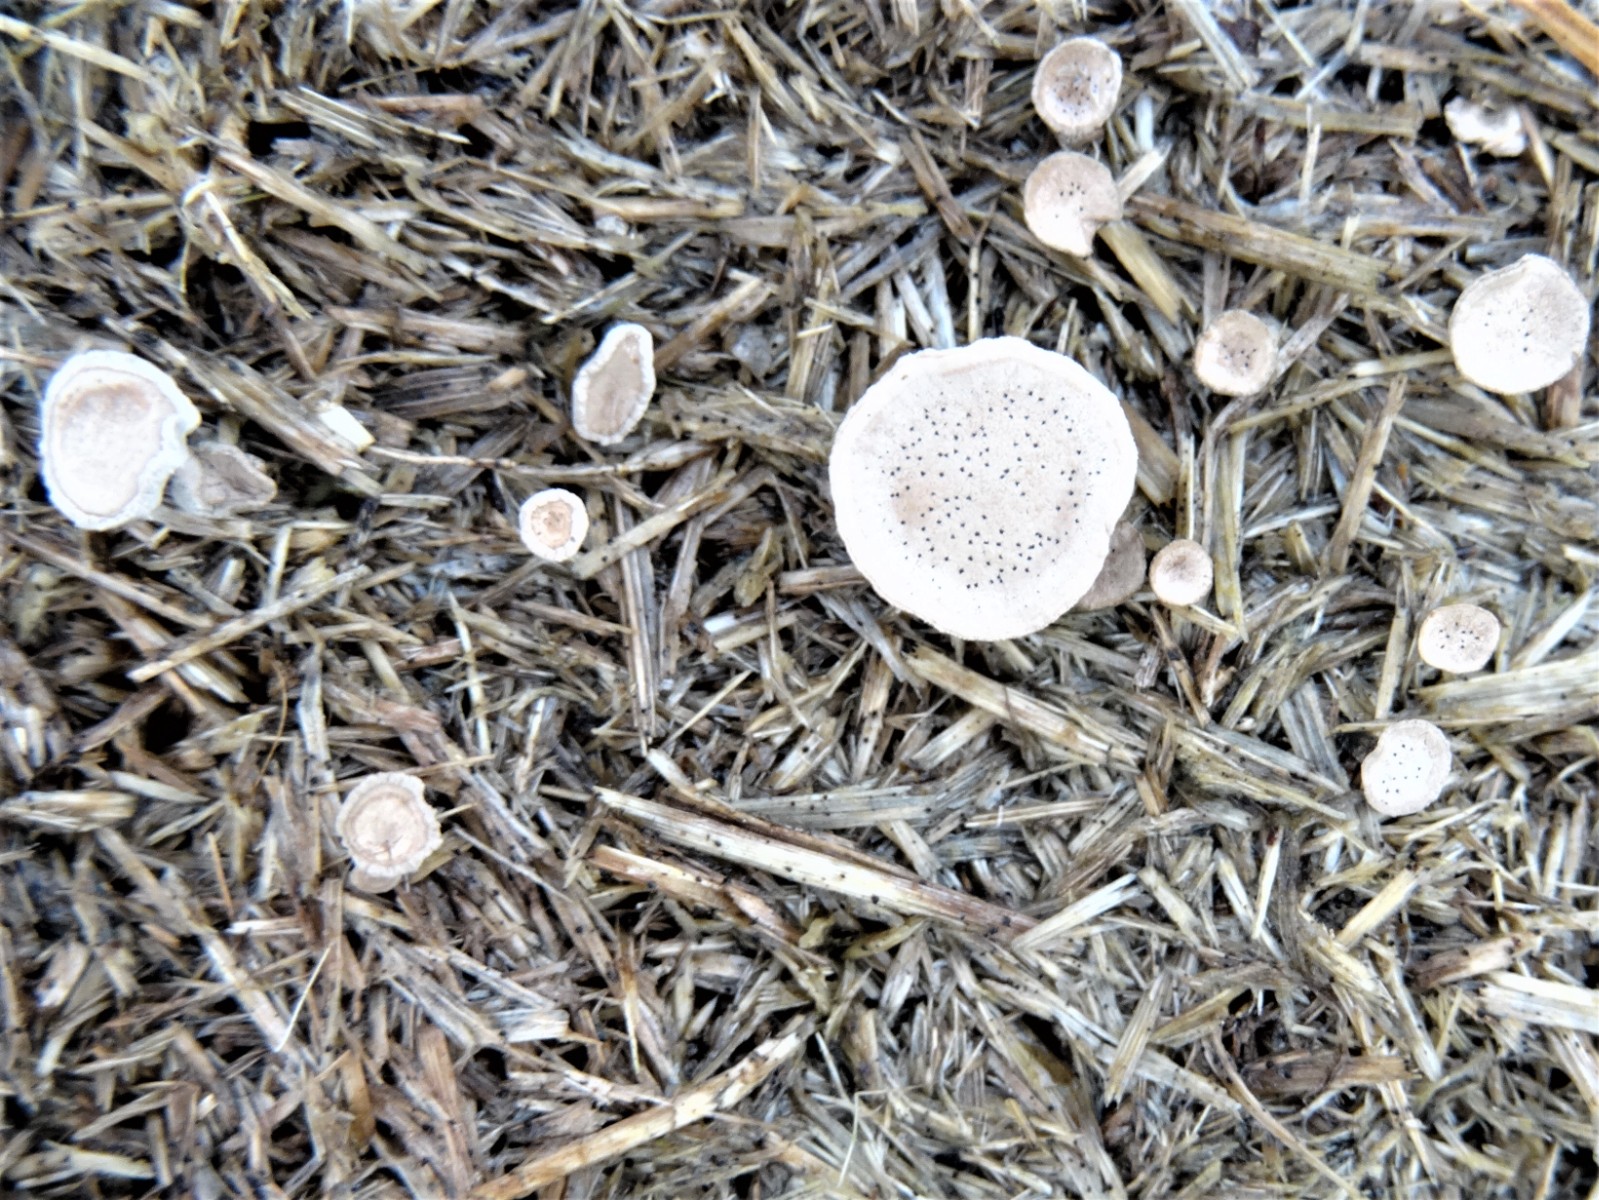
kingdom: Fungi
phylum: Ascomycota
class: Sordariomycetes
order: Xylariales
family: Xylariaceae
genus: Poronia
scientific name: Poronia punctata
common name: stor priksvamp
